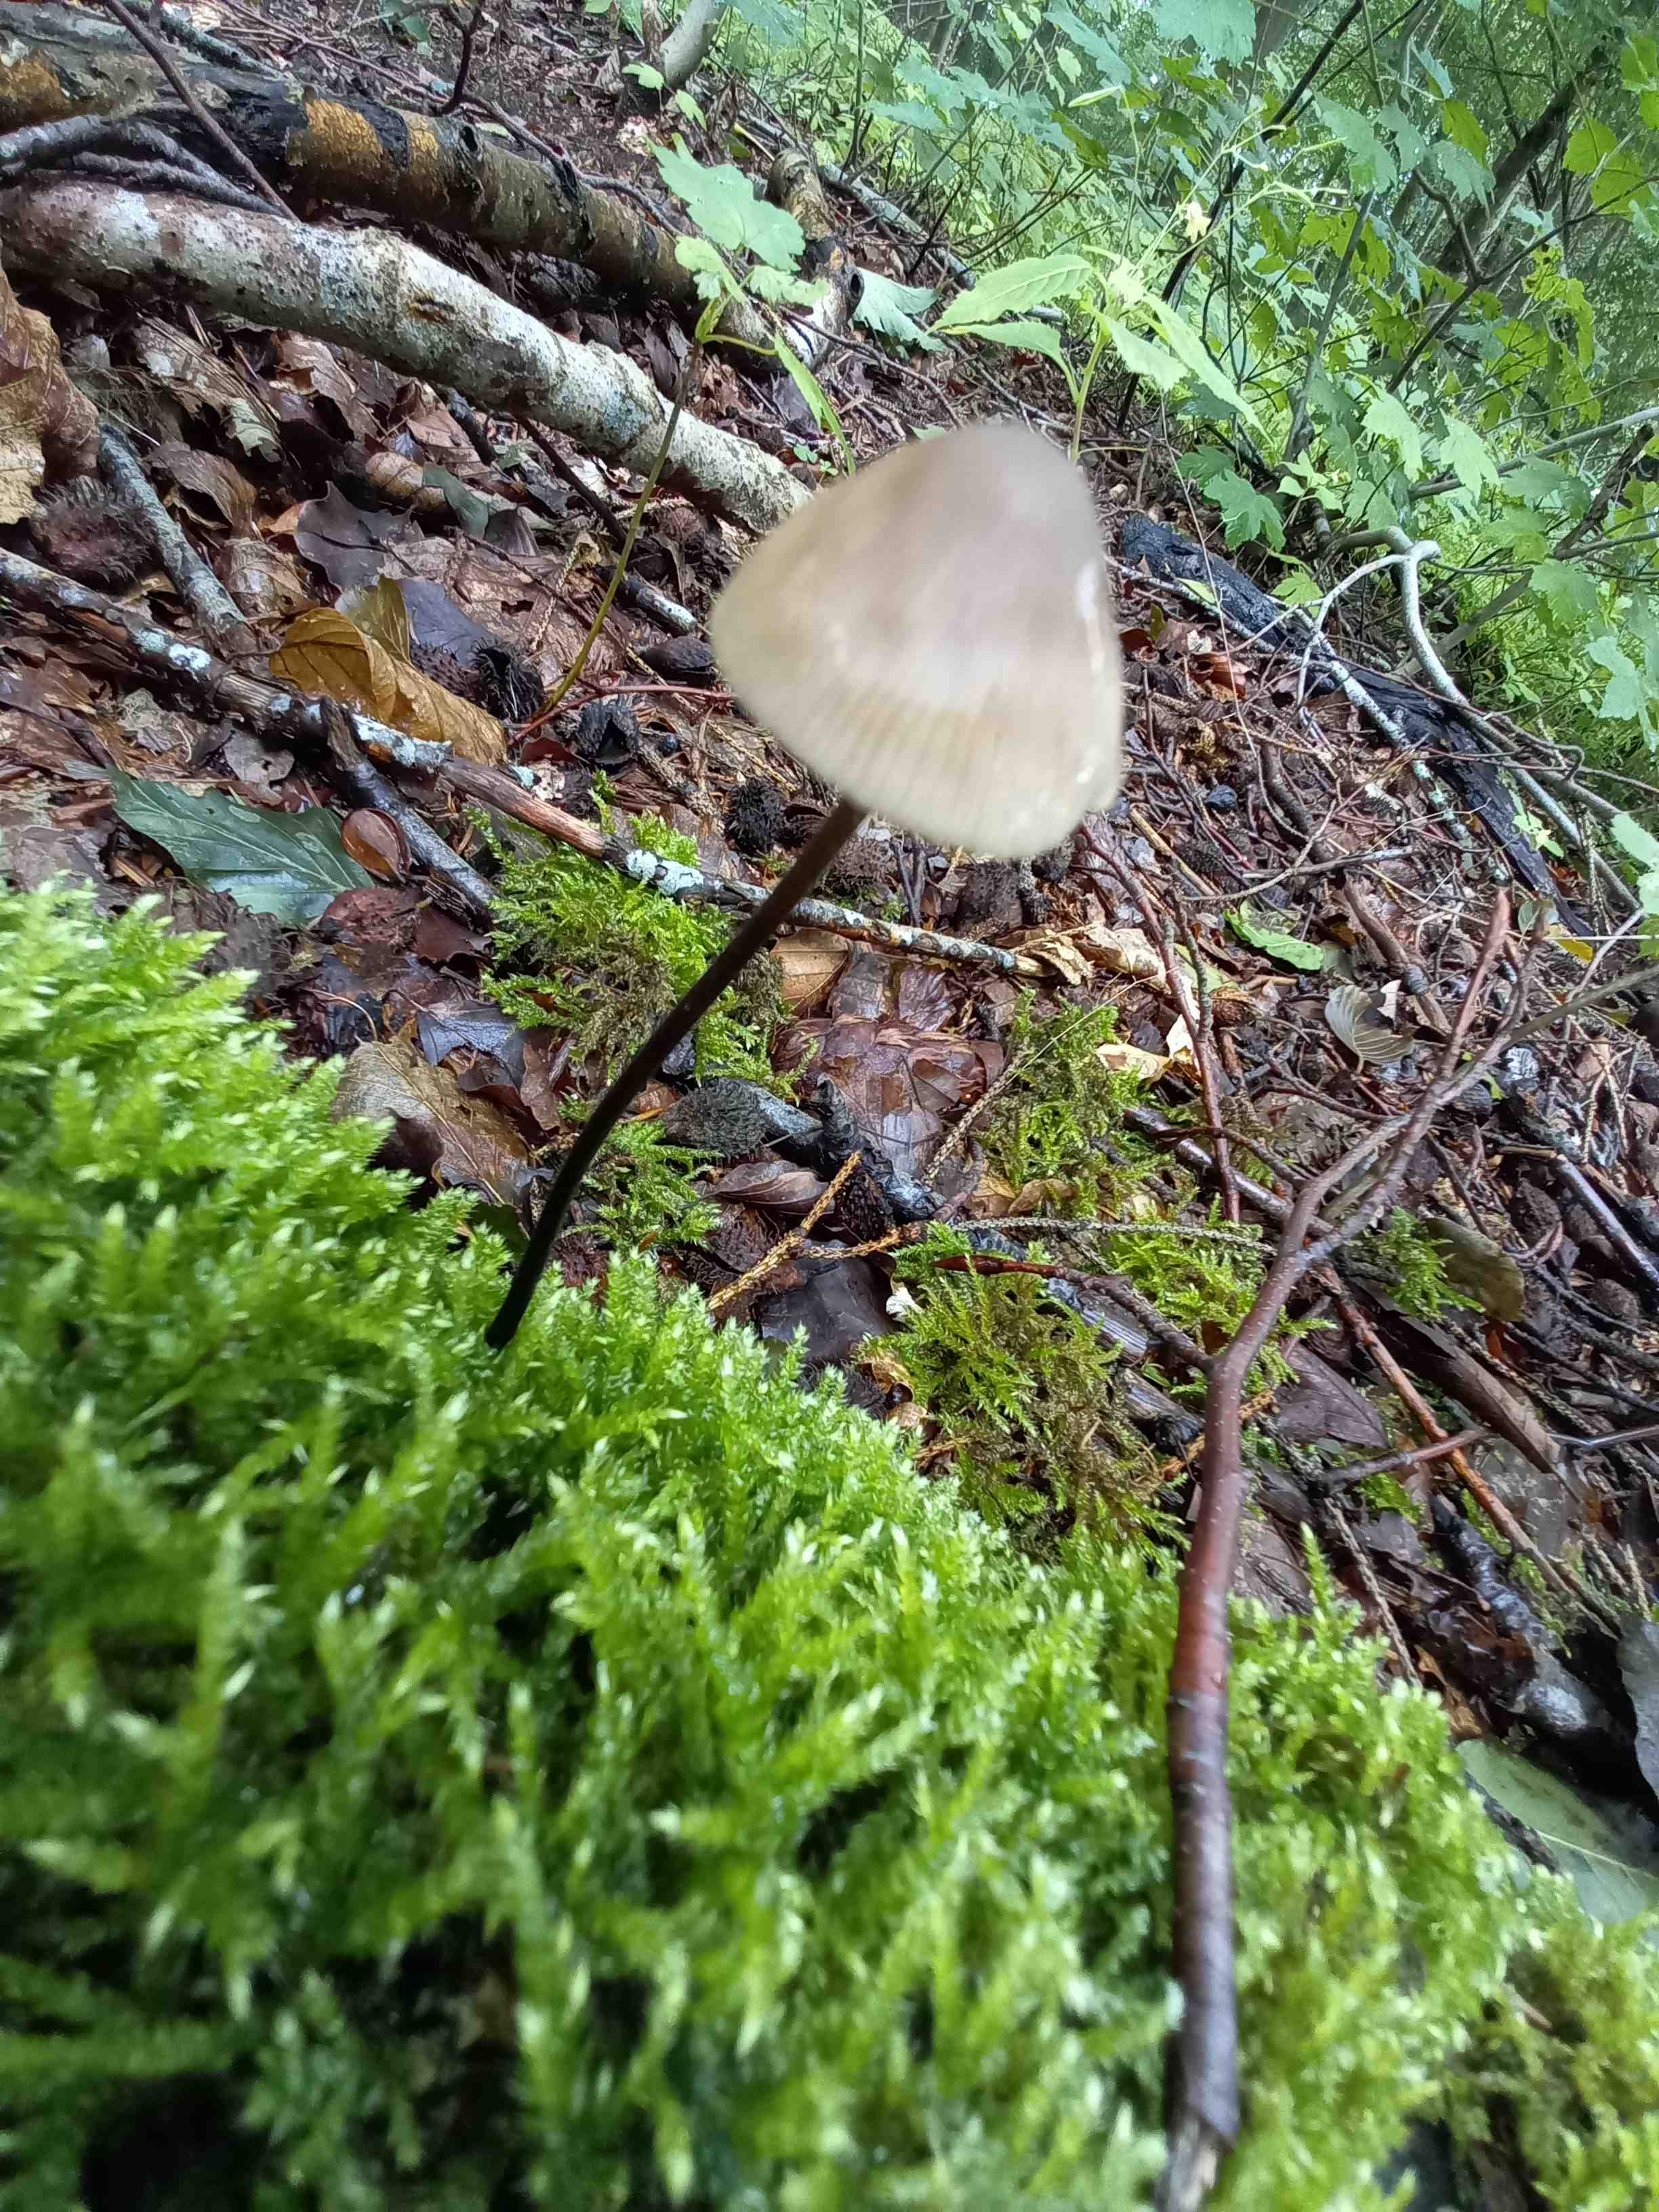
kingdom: Fungi
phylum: Basidiomycota
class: Agaricomycetes
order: Agaricales
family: Omphalotaceae
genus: Mycetinis
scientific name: Mycetinis alliaceus
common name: stor løghat
